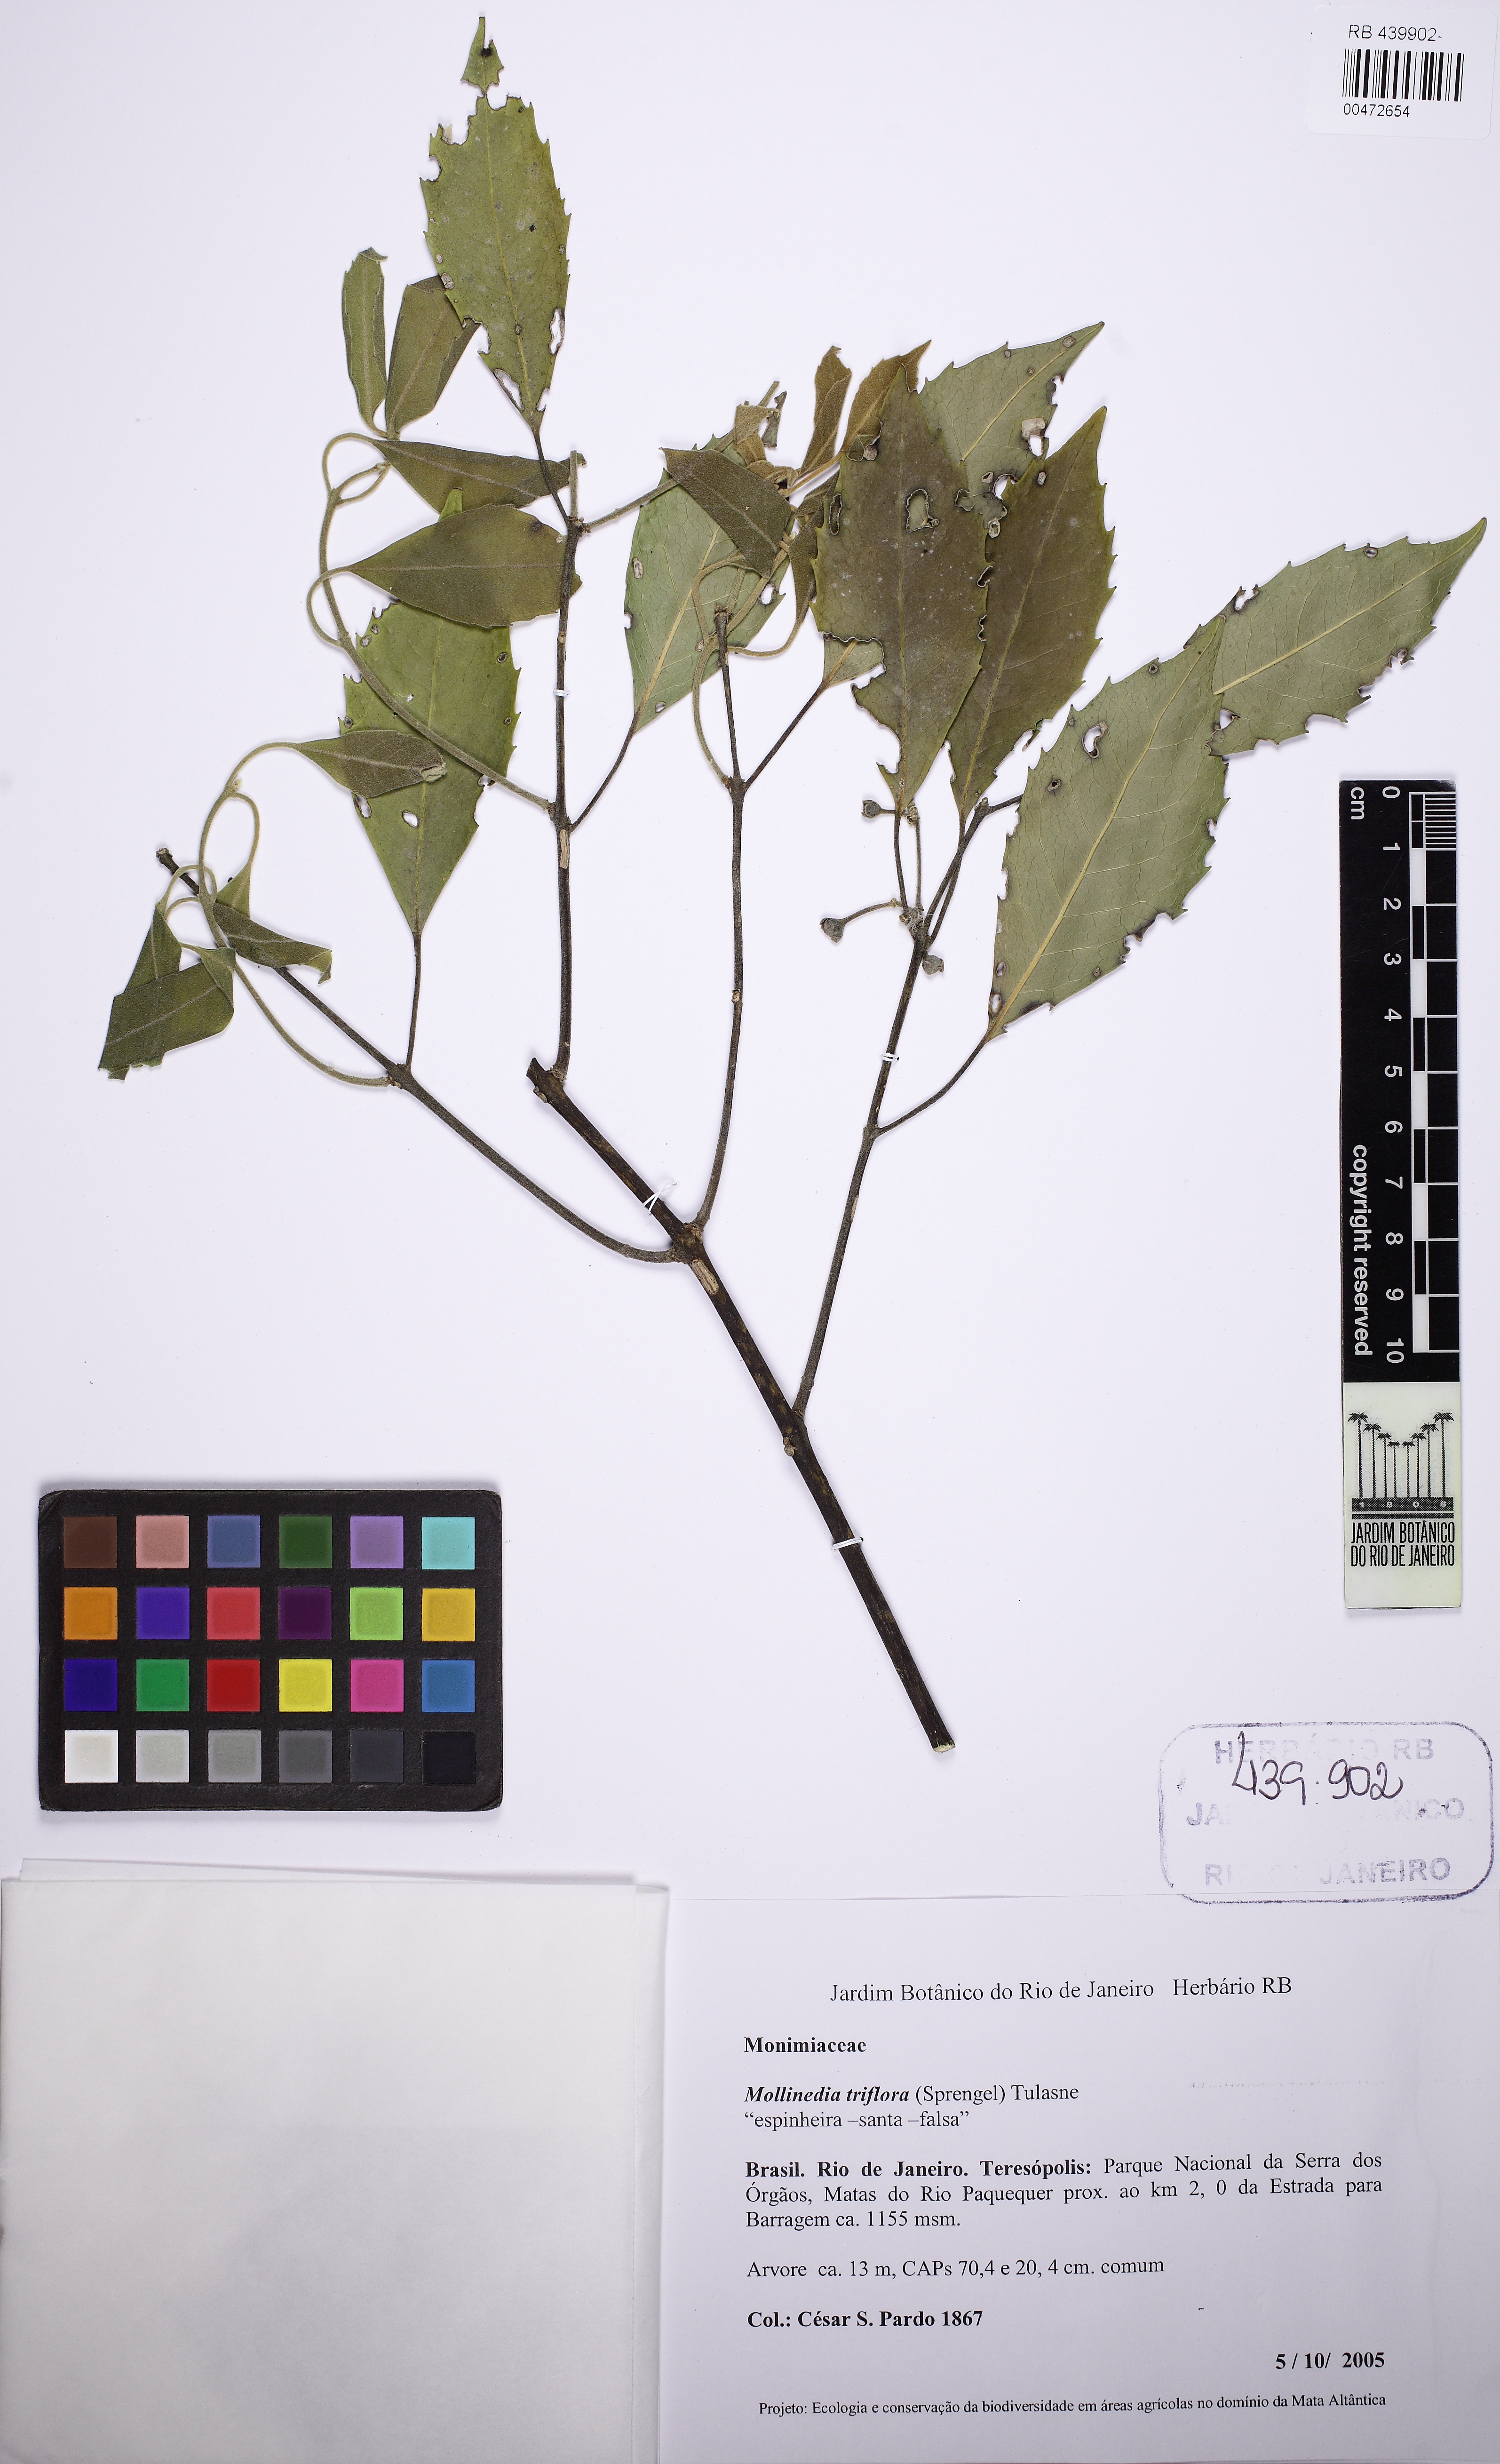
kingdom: Plantae
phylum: Tracheophyta
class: Magnoliopsida
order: Laurales
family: Monimiaceae
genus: Mollinedia
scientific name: Mollinedia triflora
